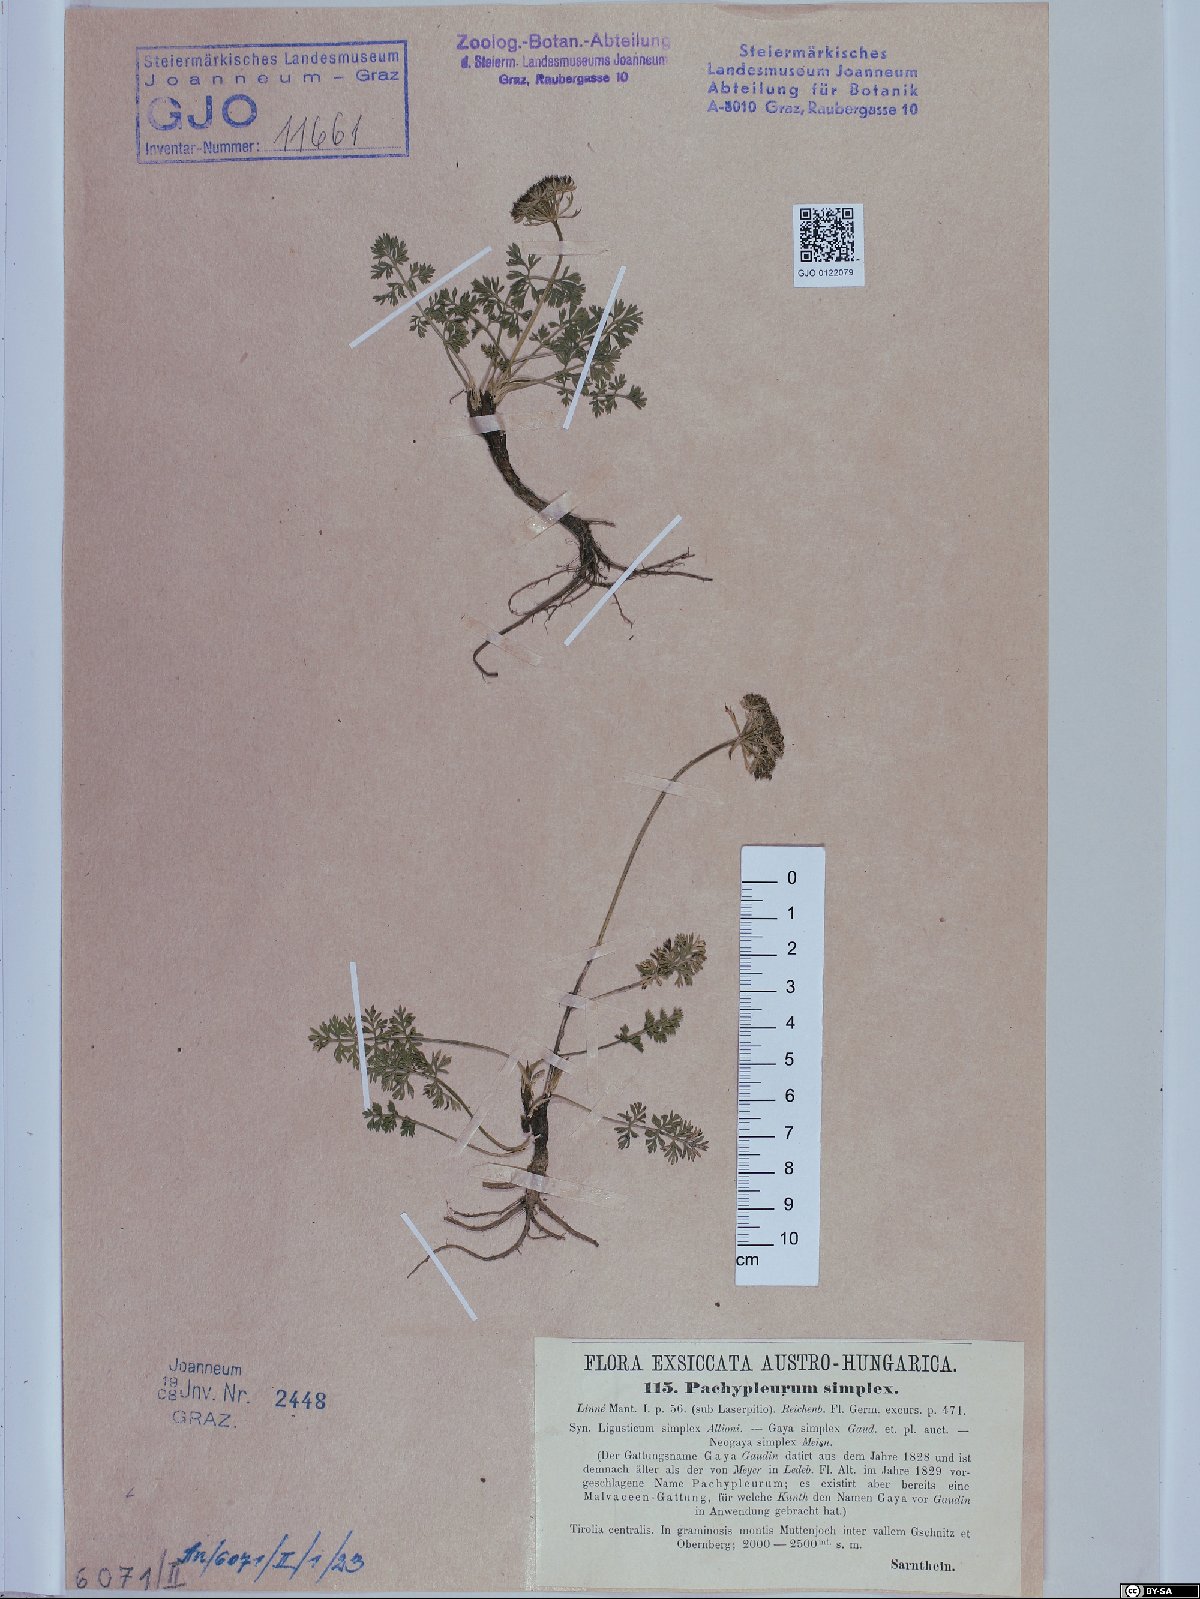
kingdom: Plantae
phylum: Tracheophyta
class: Magnoliopsida
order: Apiales
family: Apiaceae
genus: Pachypleurum
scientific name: Pachypleurum mutellinoides
